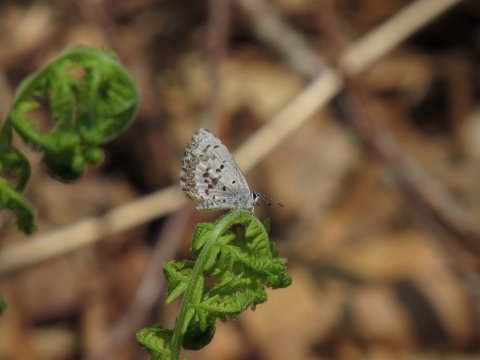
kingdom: Animalia
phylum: Arthropoda
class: Insecta
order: Lepidoptera
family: Lycaenidae
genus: Celastrina
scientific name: Celastrina lucia
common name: Northern Spring Azure
